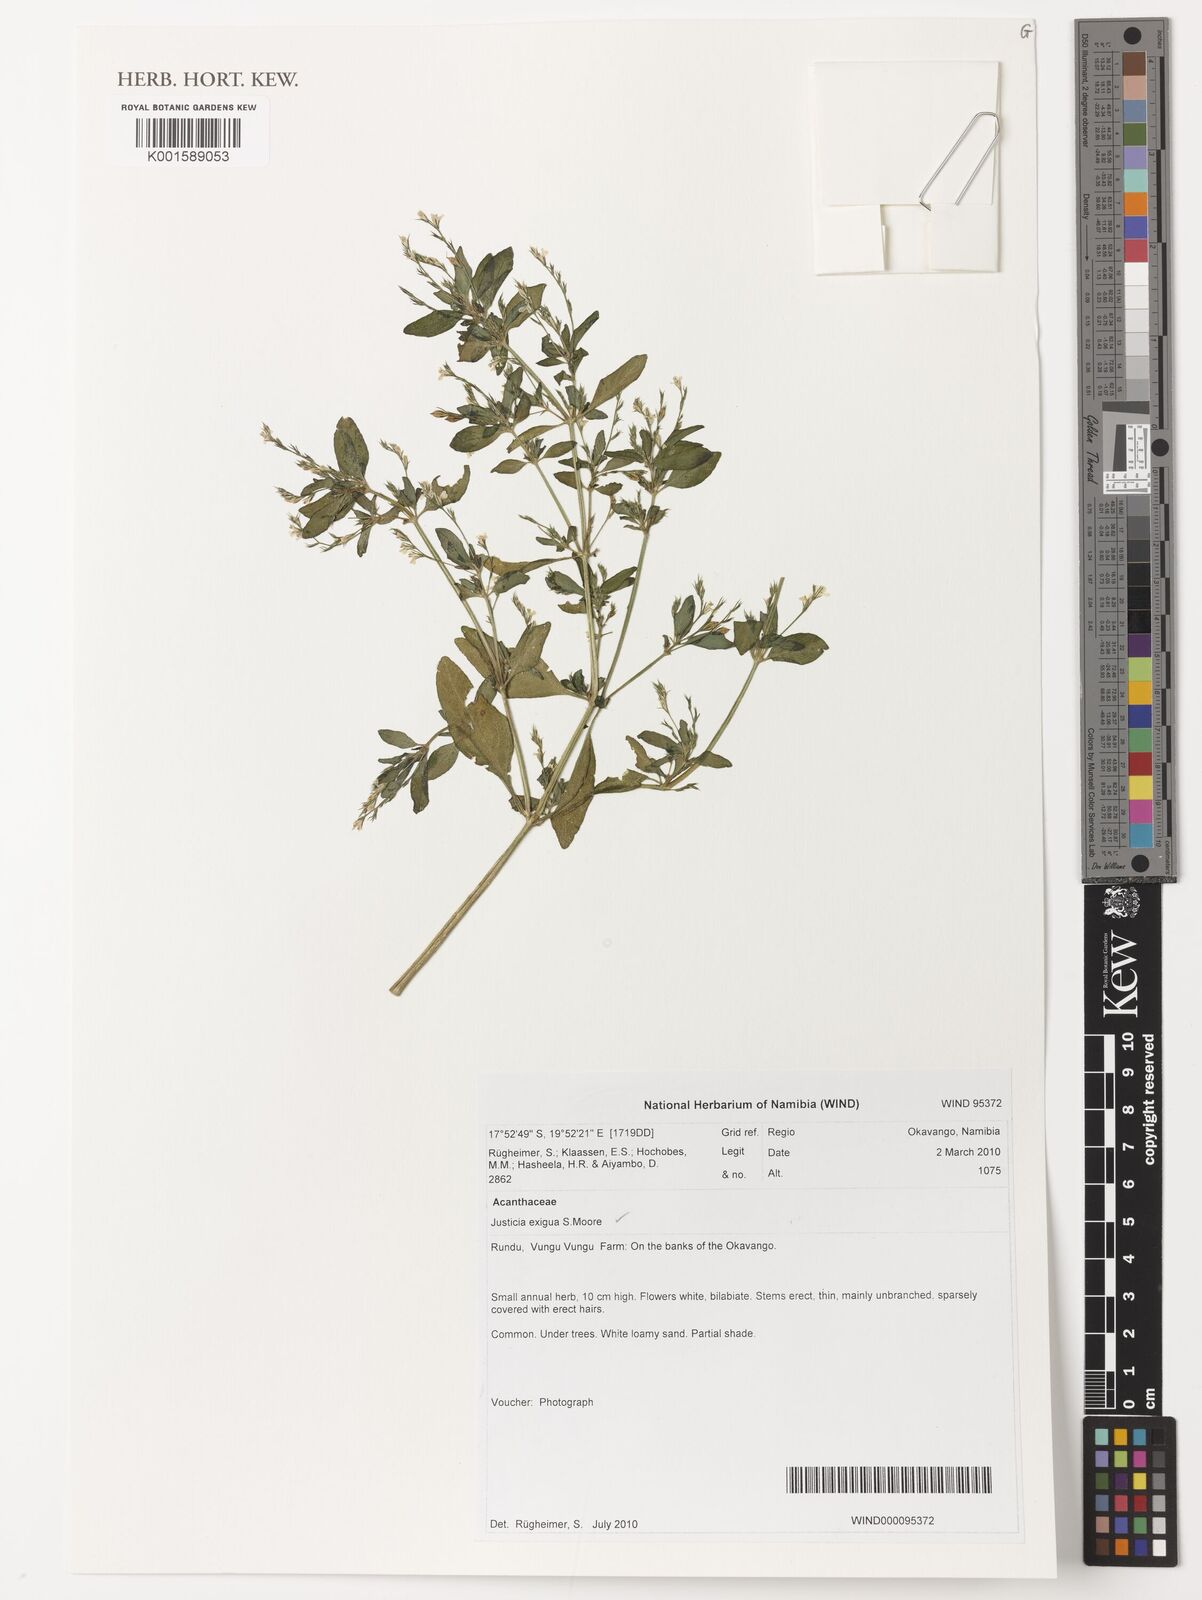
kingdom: Plantae
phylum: Tracheophyta
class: Magnoliopsida
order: Lamiales
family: Acanthaceae
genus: Justicia
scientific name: Justicia exigua
